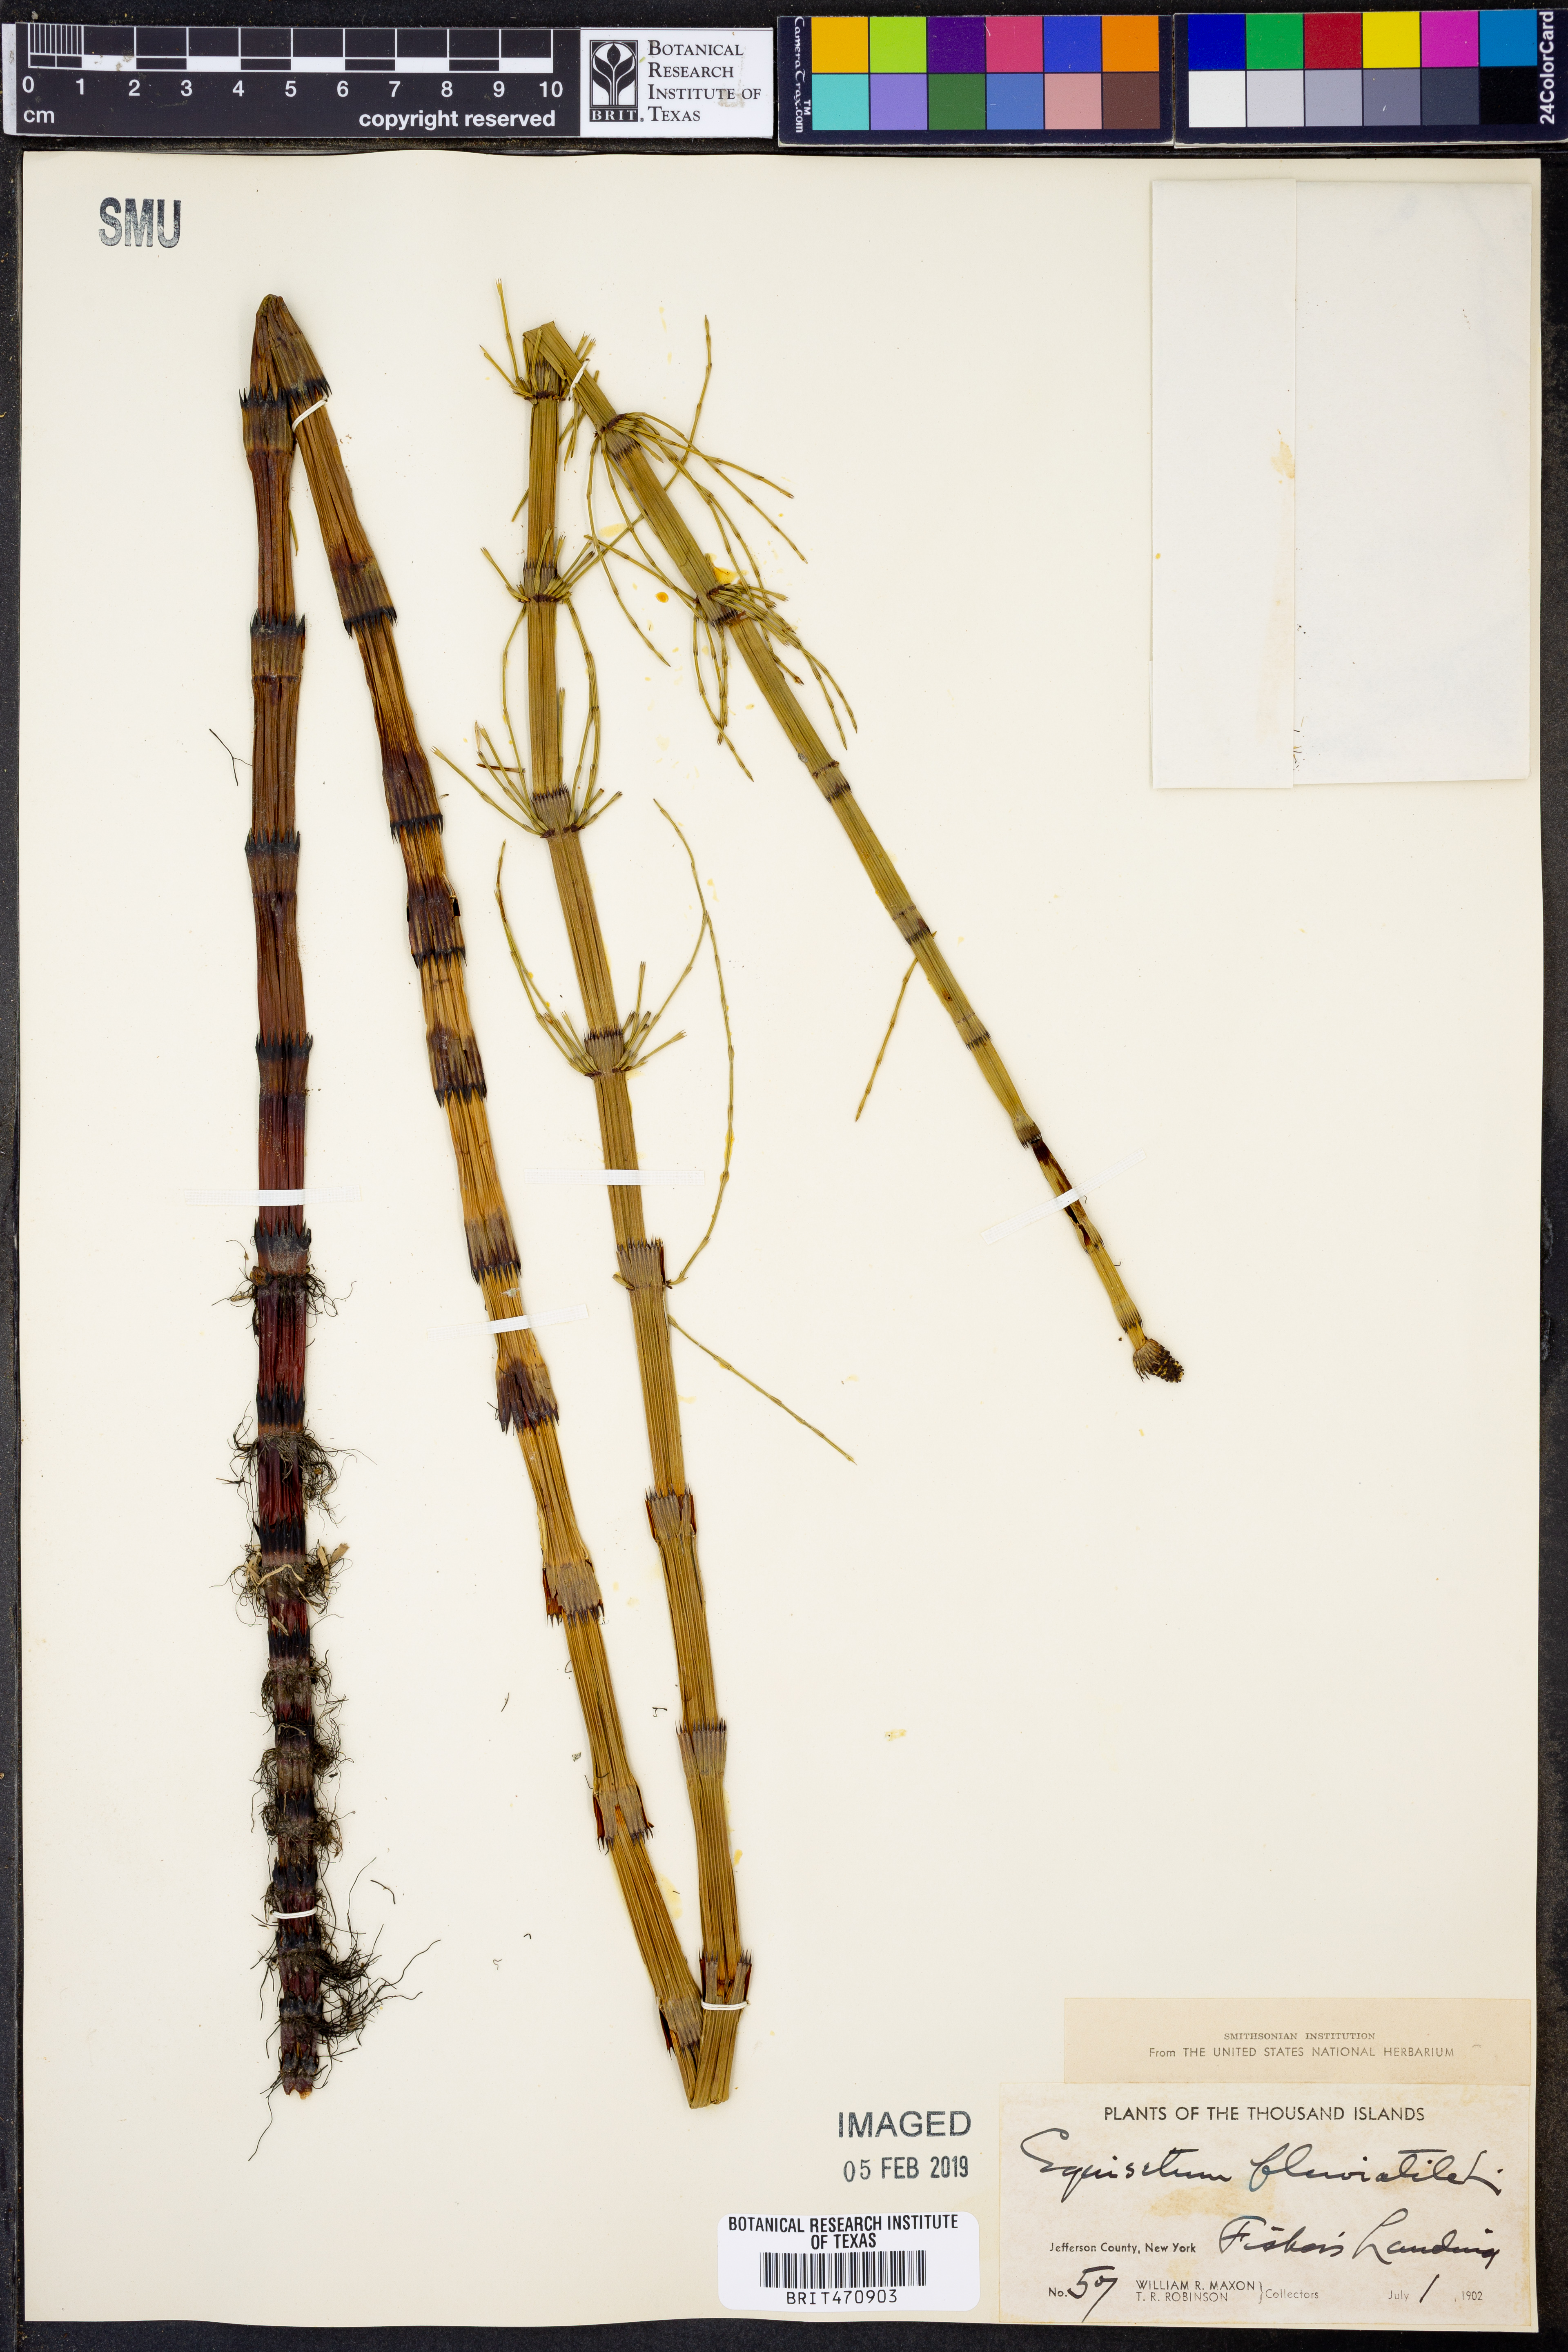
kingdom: Plantae
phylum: Tracheophyta
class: Polypodiopsida
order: Equisetales
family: Equisetaceae
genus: Equisetum
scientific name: Equisetum fluviatile
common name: Water horsetail
